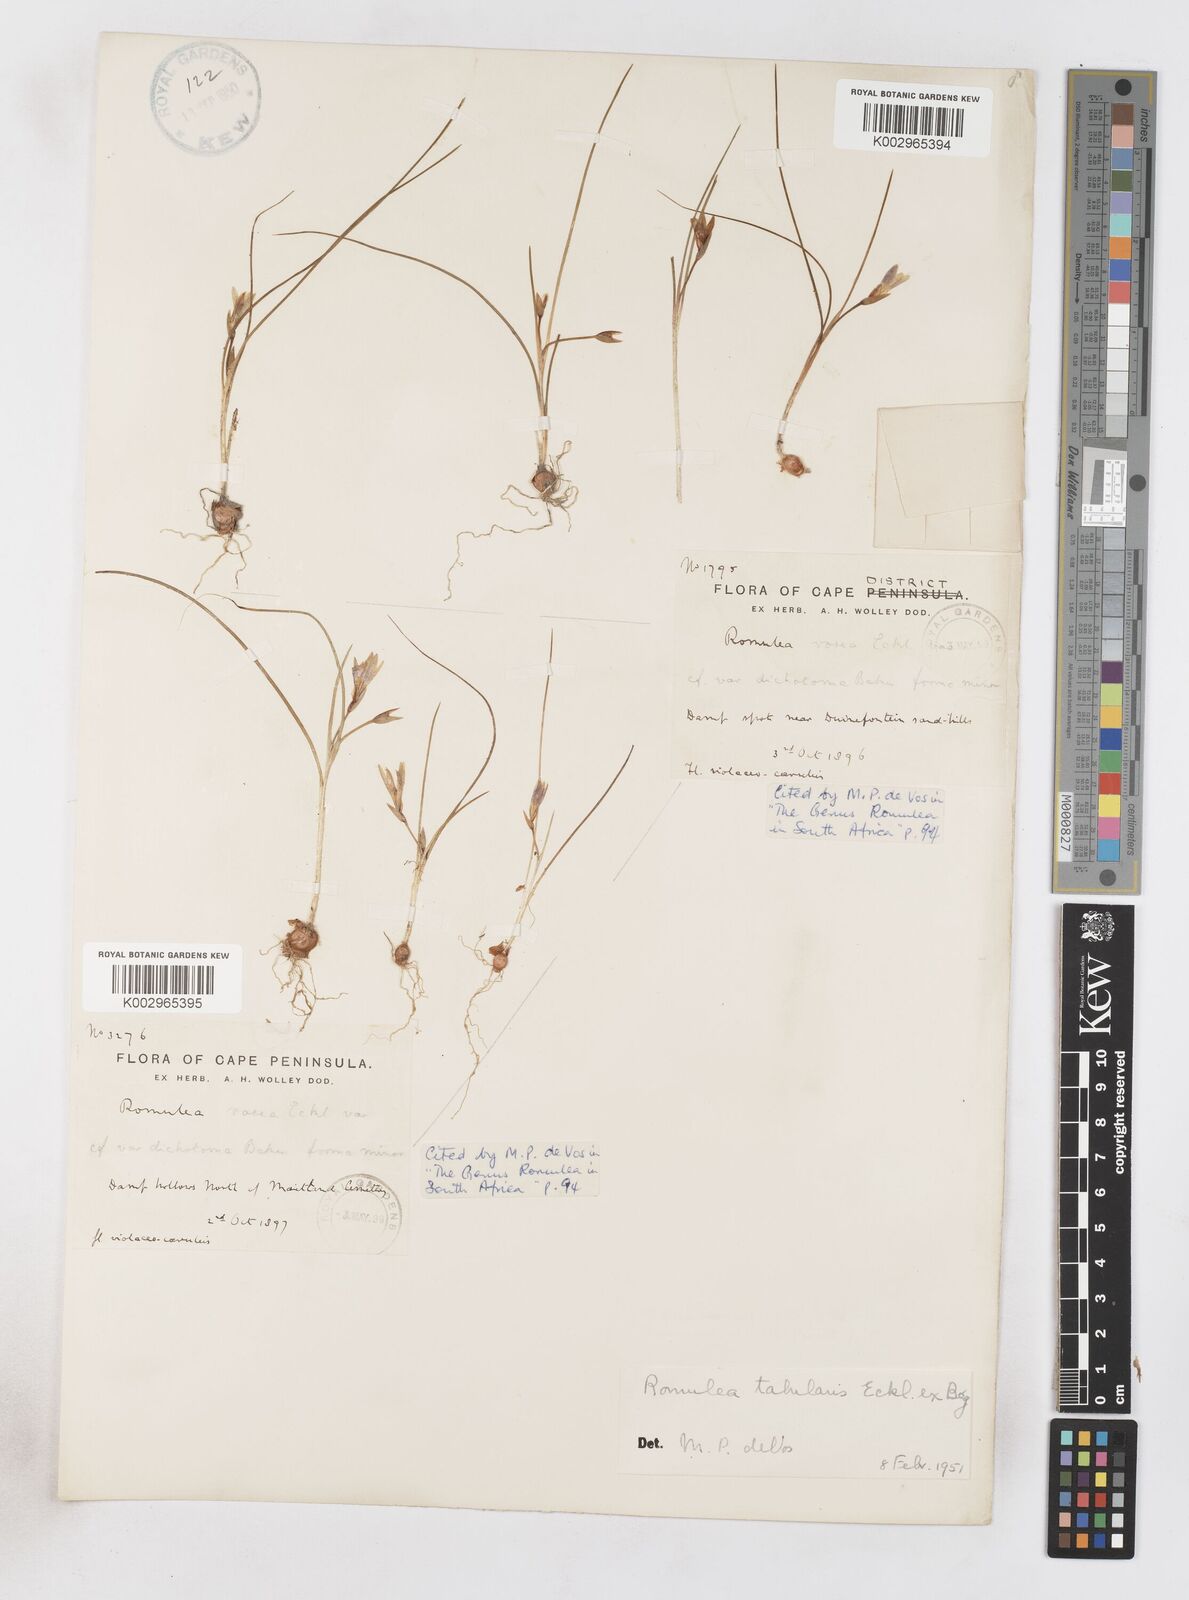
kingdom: Plantae
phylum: Tracheophyta
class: Liliopsida
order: Asparagales
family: Iridaceae
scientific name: Iridaceae
